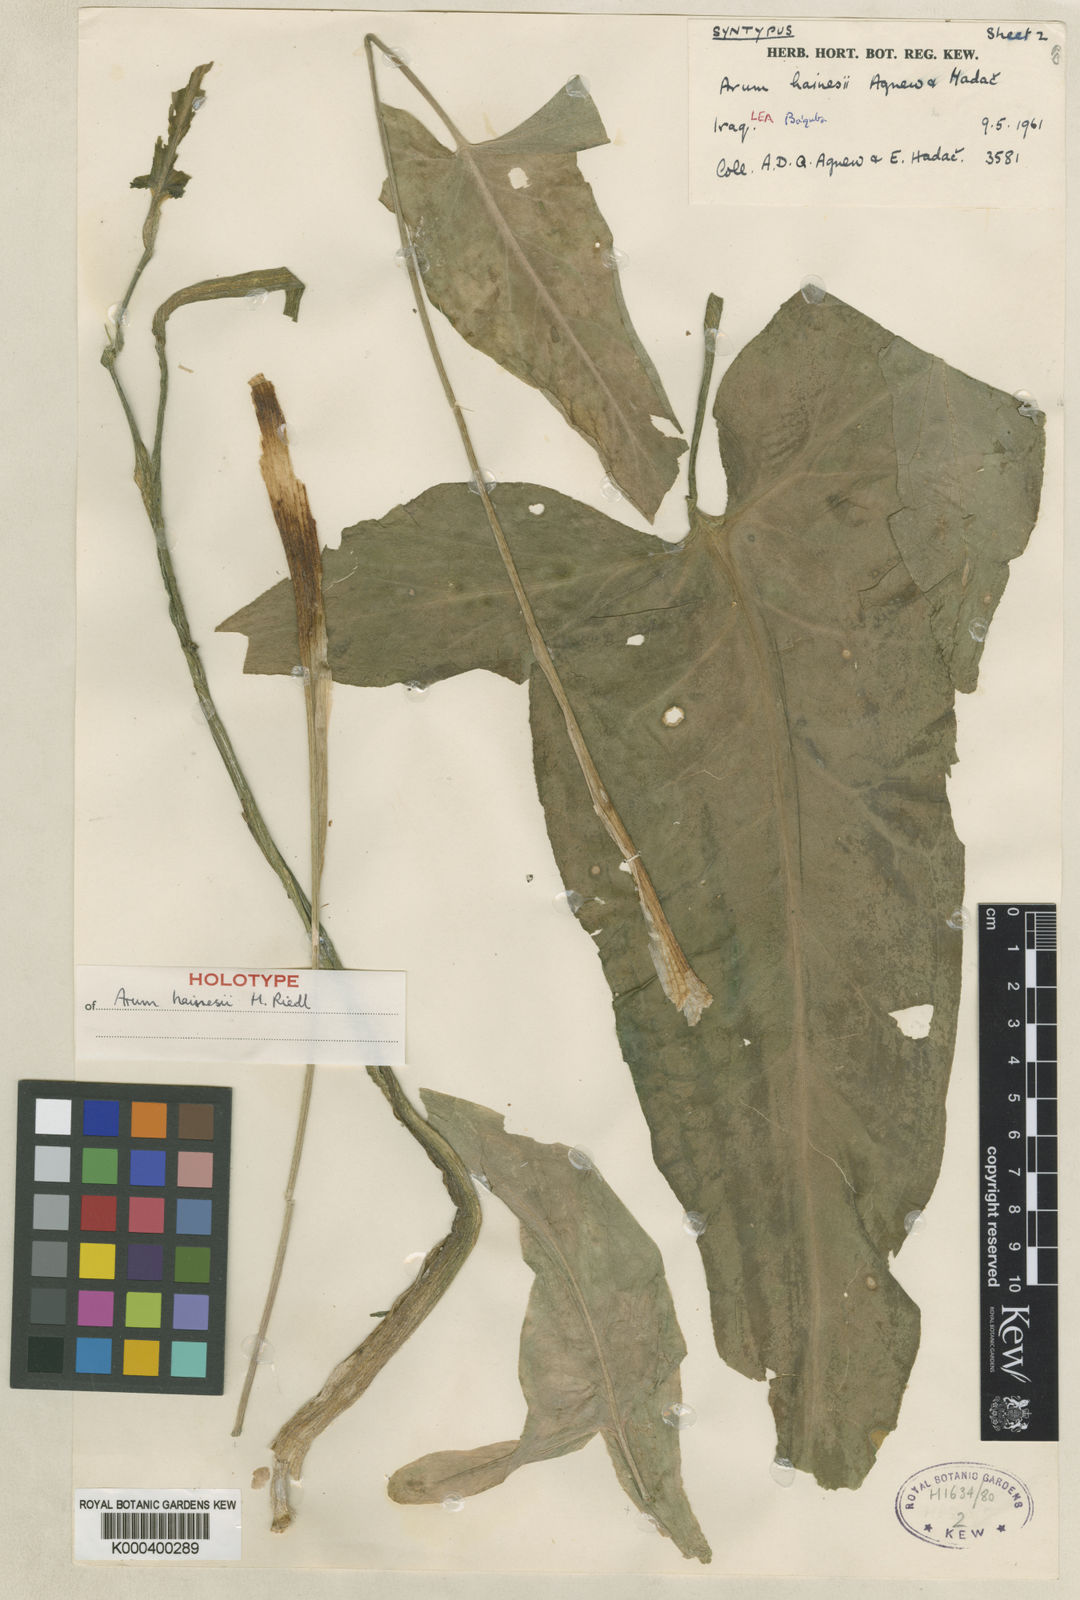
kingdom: Plantae
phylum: Tracheophyta
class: Liliopsida
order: Alismatales
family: Araceae
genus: Arum
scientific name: Arum hainesii
